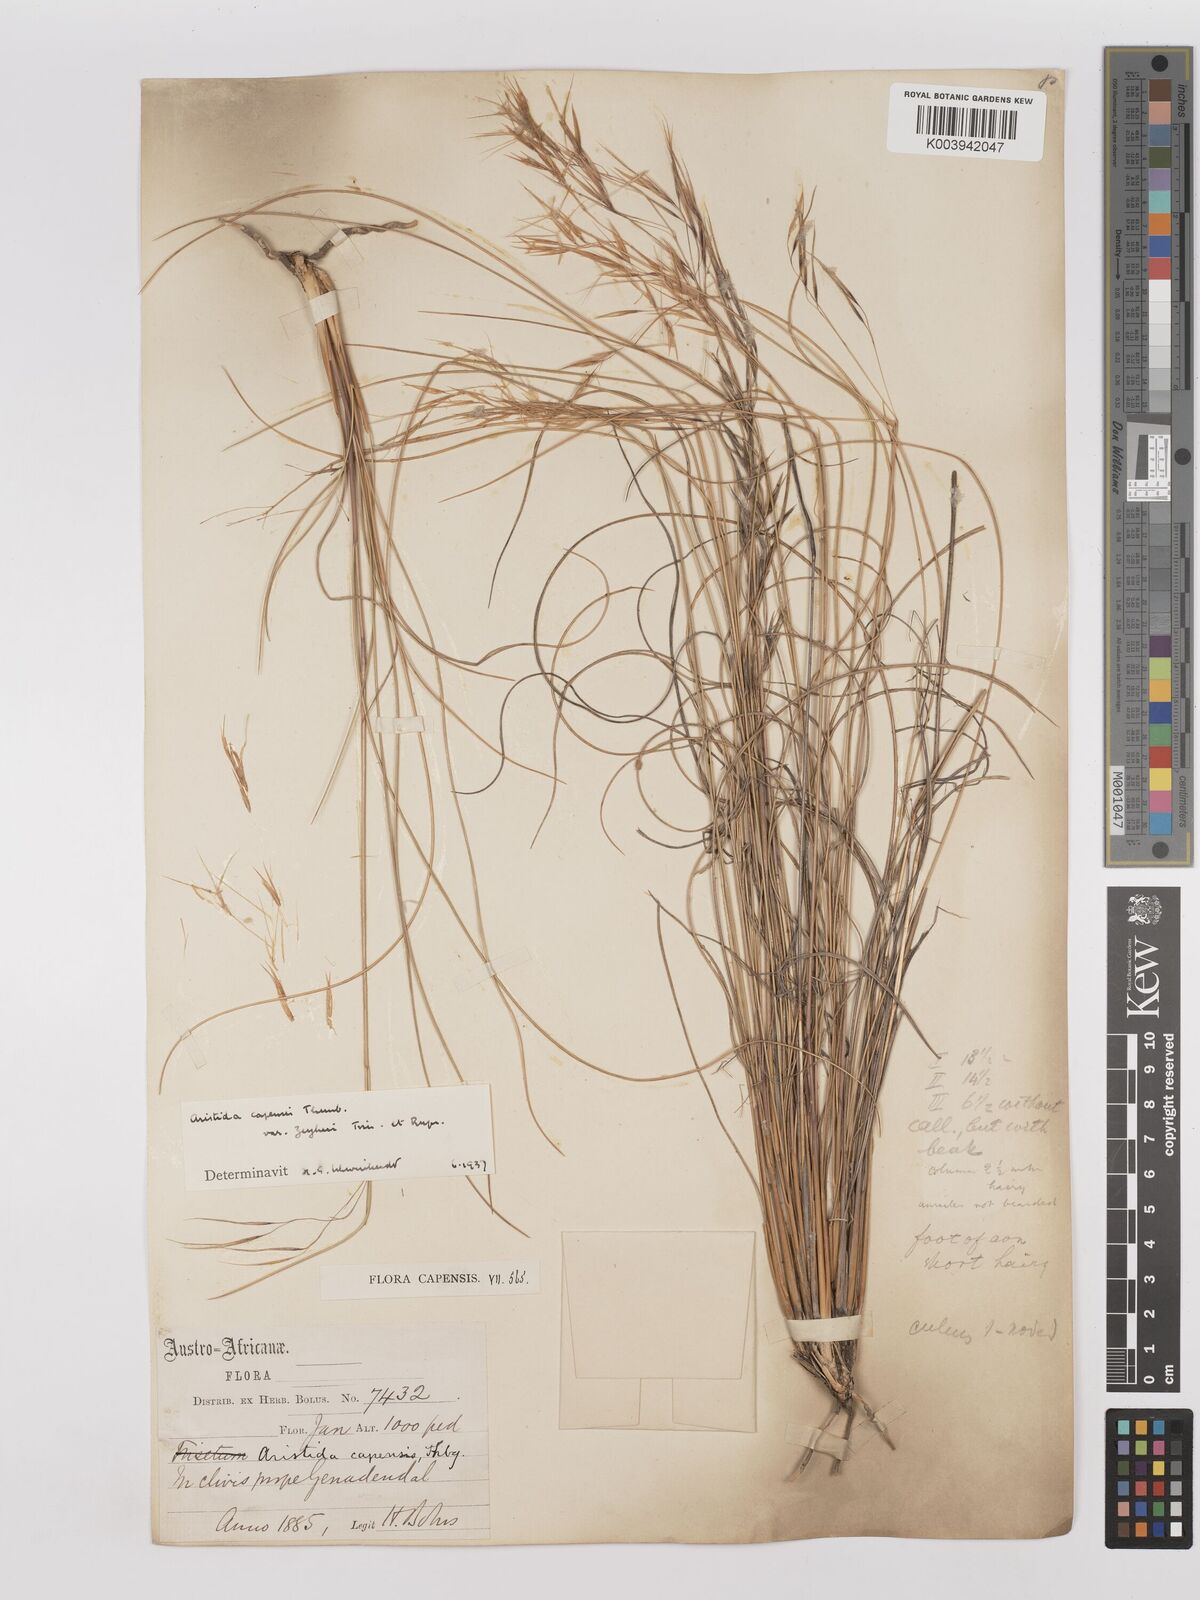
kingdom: Plantae
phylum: Tracheophyta
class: Liliopsida
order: Poales
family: Poaceae
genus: Stipagrostis
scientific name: Stipagrostis zeyheri
